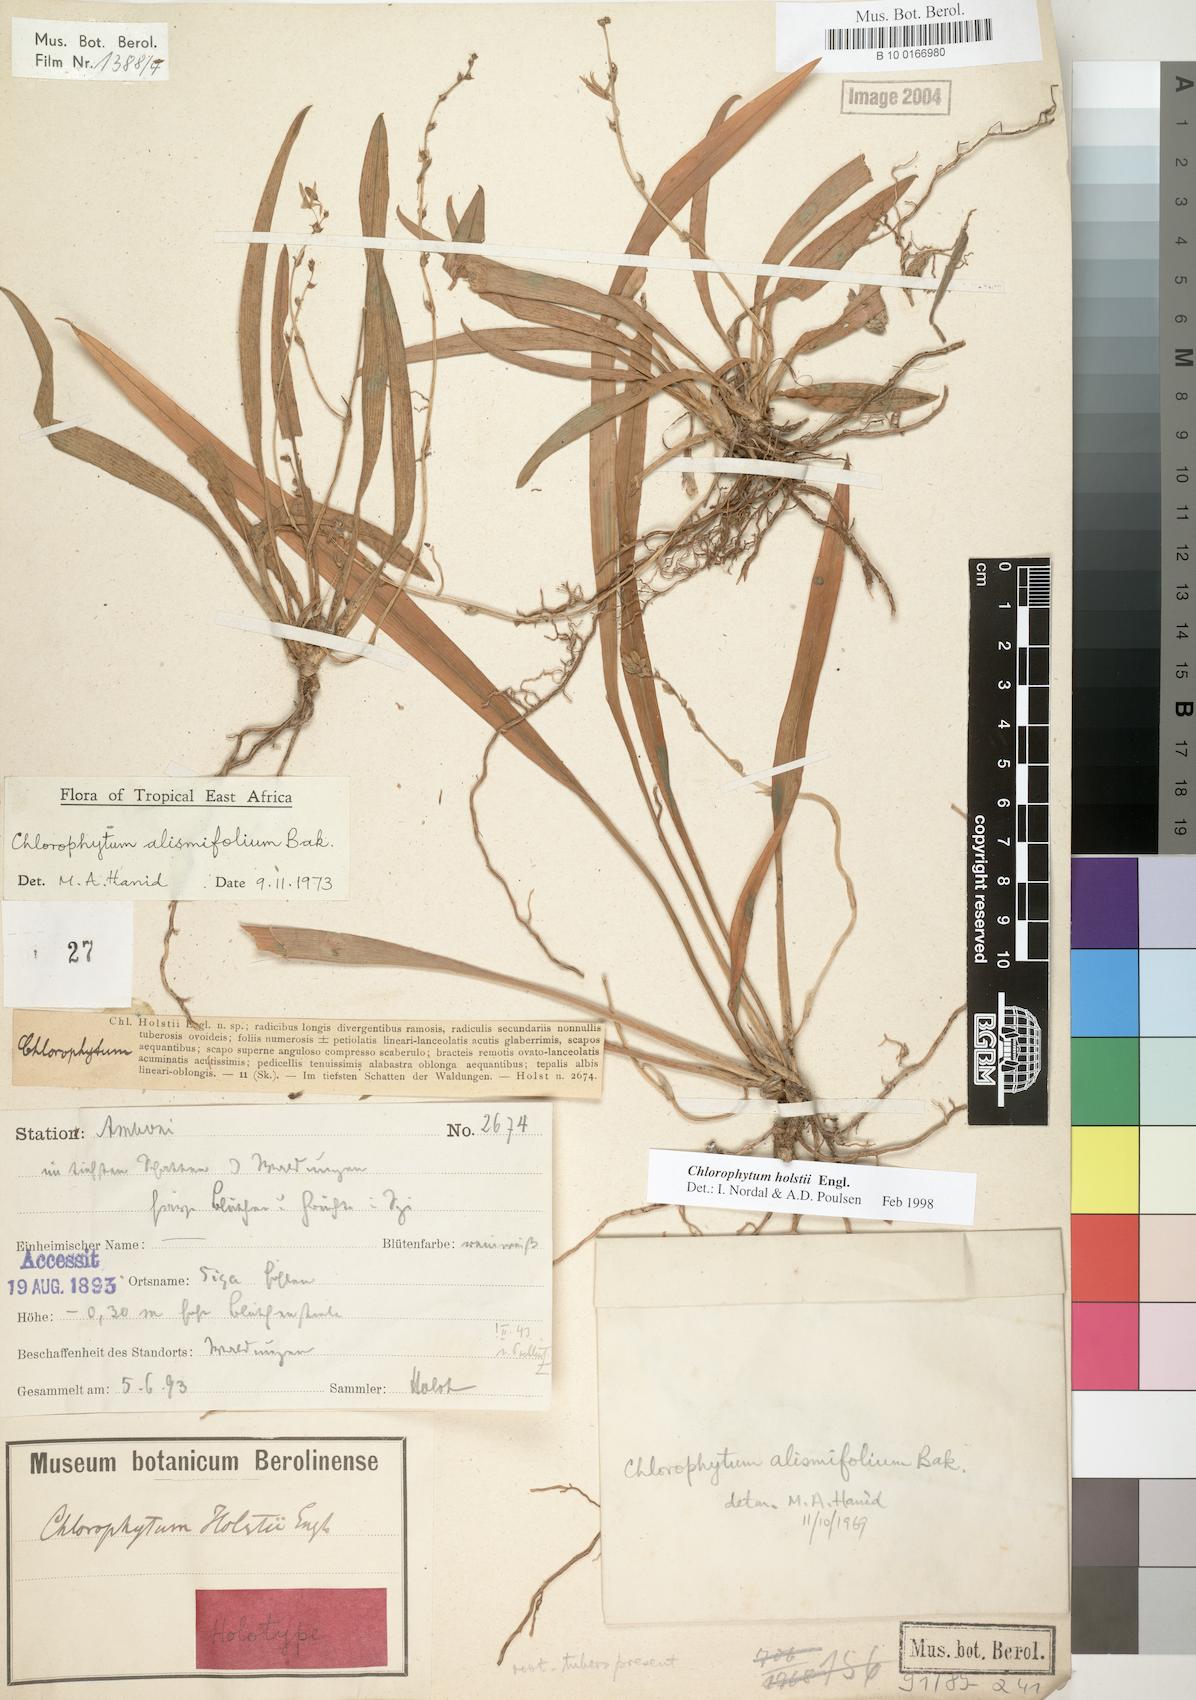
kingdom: Plantae
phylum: Tracheophyta
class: Liliopsida
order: Asparagales
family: Asparagaceae
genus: Chlorophytum
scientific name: Chlorophytum holstii
